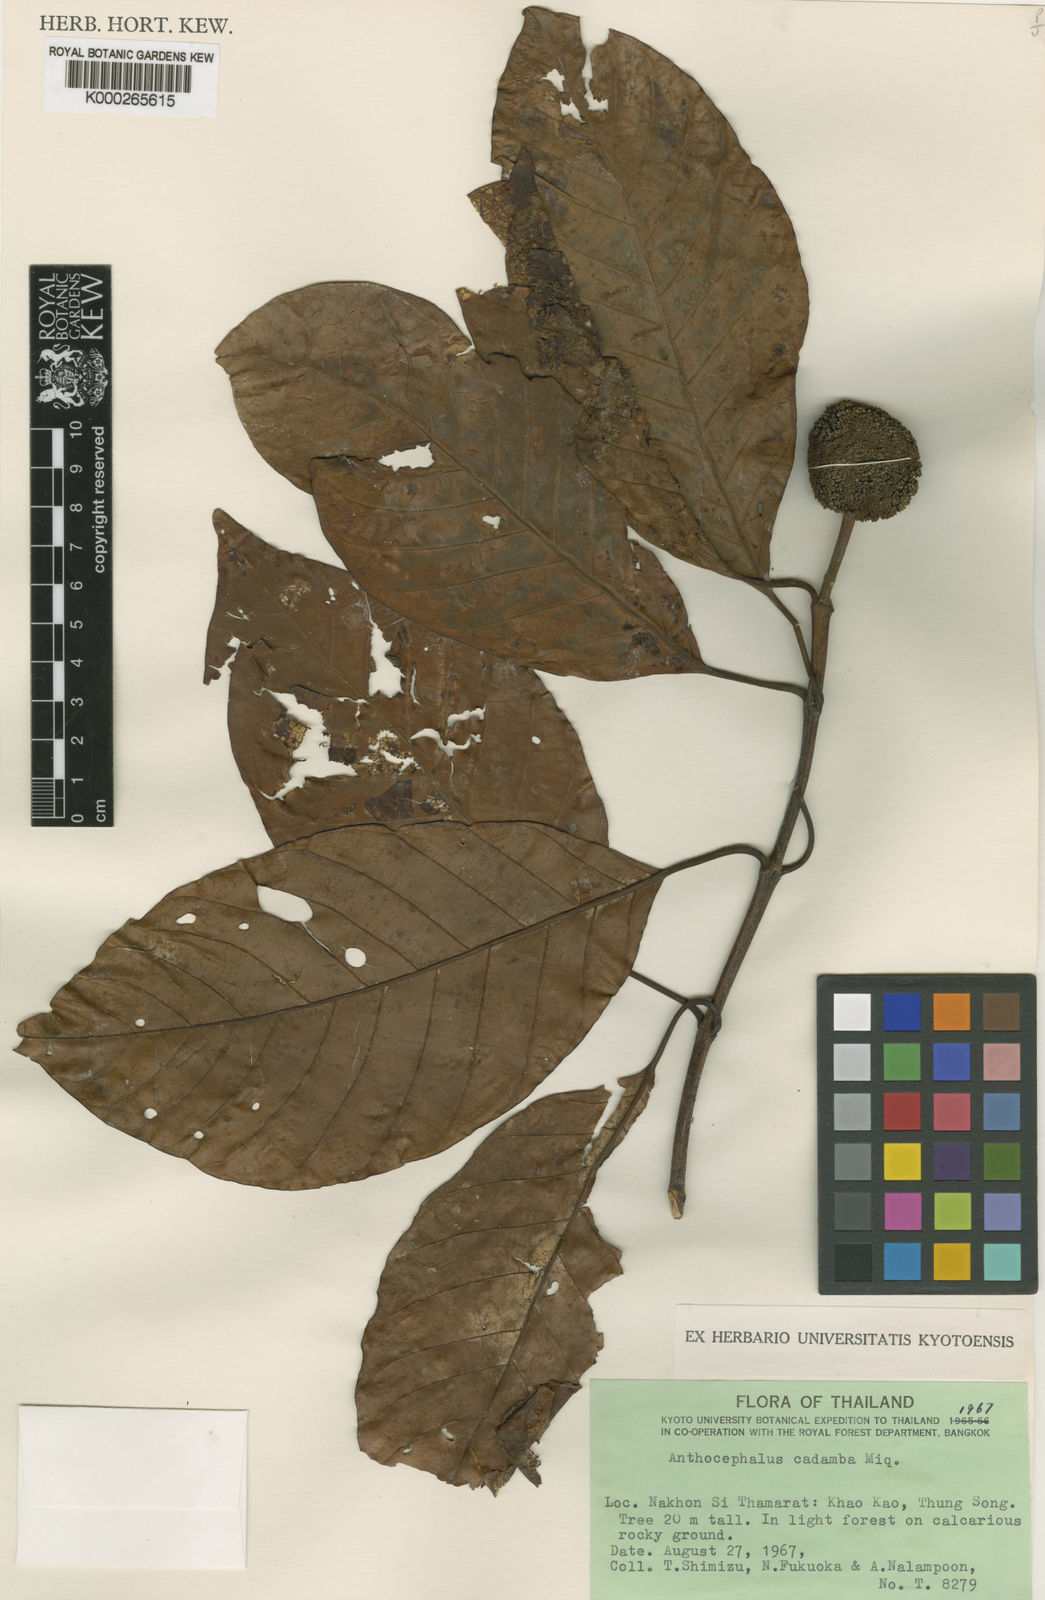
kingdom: Plantae
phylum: Tracheophyta
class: Magnoliopsida
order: Gentianales
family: Rubiaceae
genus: Neolamarckia
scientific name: Neolamarckia cadamba
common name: Leichhardt-pine
